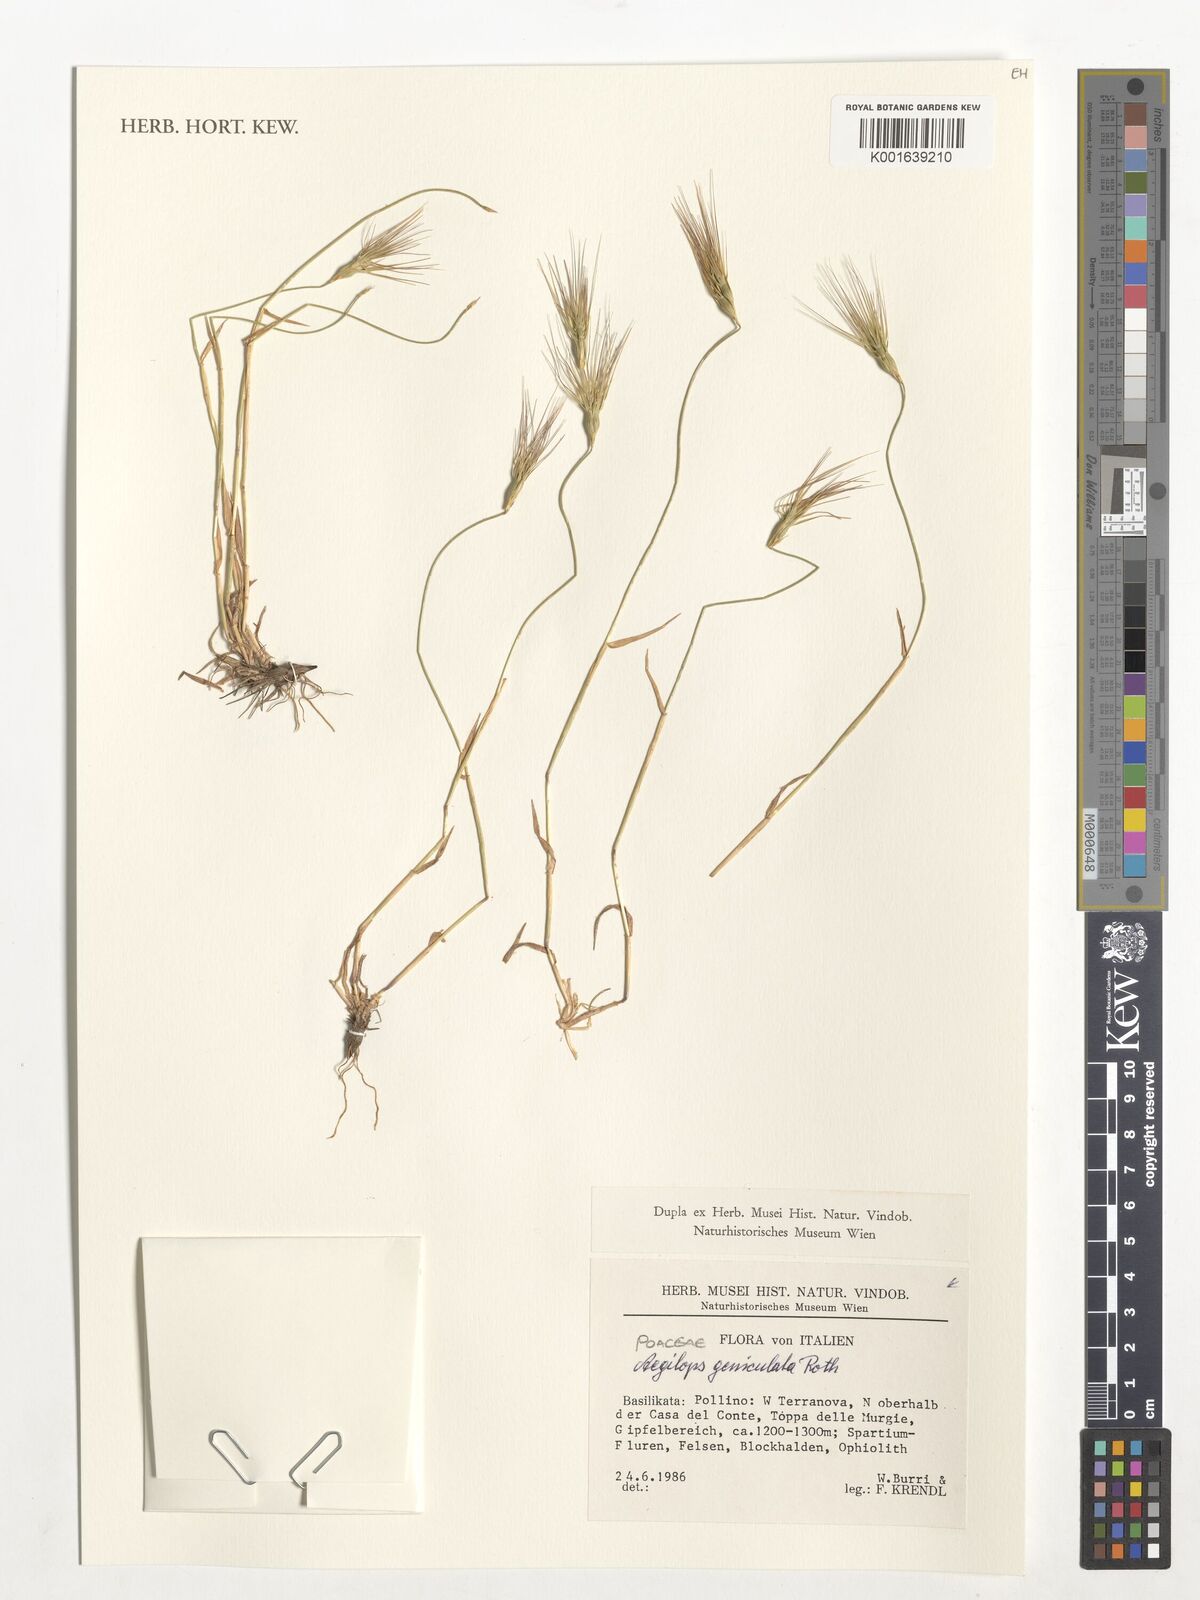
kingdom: Plantae
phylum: Tracheophyta
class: Liliopsida
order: Poales
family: Poaceae
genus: Aegilops
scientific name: Aegilops geniculata
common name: Ovate goat grass
